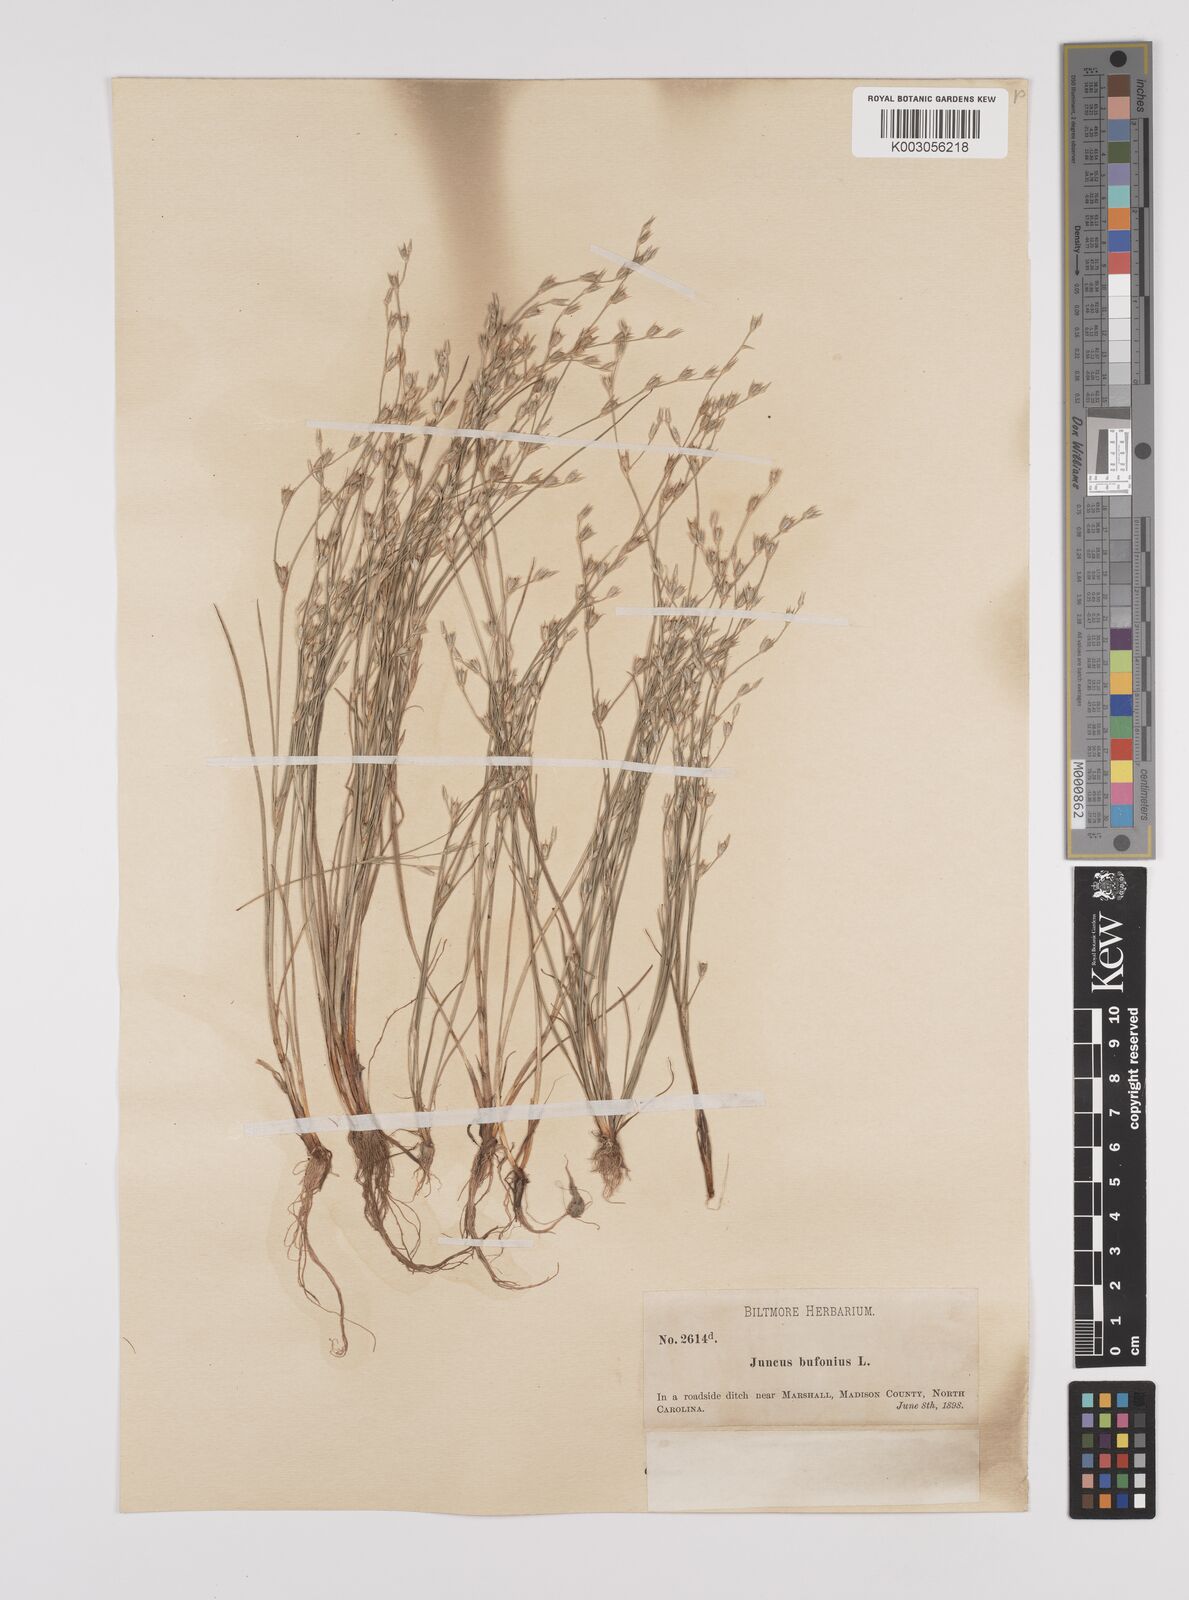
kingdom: Plantae
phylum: Tracheophyta
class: Liliopsida
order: Poales
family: Juncaceae
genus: Juncus
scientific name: Juncus bufonius
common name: Toad rush
